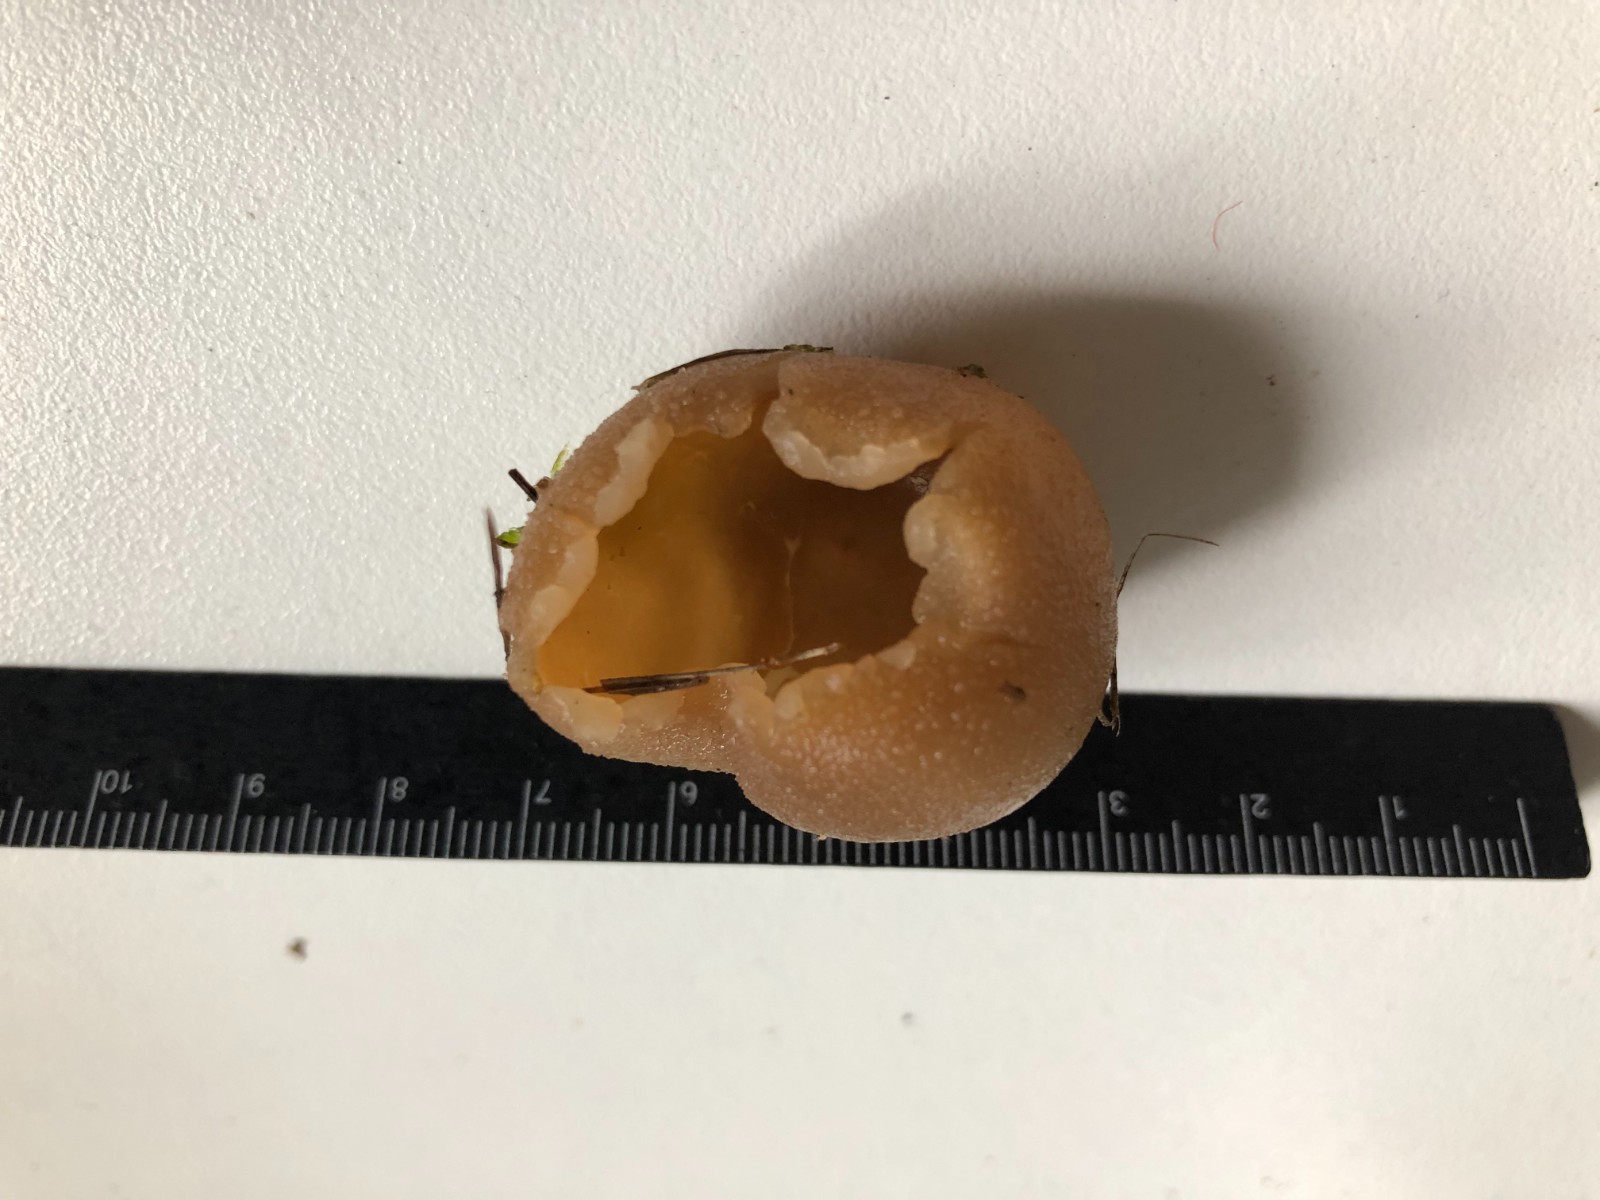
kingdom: Fungi
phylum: Ascomycota
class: Pezizomycetes
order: Pezizales
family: Pezizaceae
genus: Peziza
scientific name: Peziza vesiculosa
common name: blære-bægersvamp
